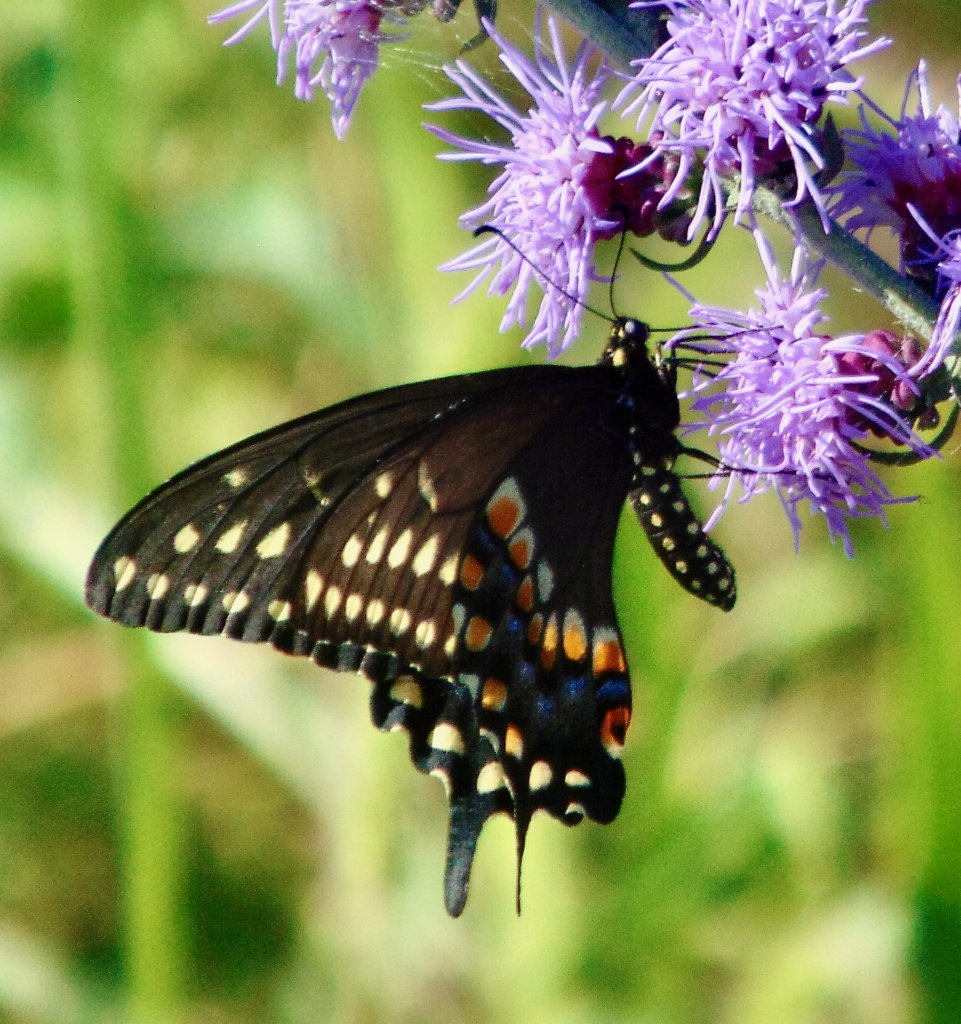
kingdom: Animalia
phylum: Arthropoda
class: Insecta
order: Lepidoptera
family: Papilionidae
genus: Papilio
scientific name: Papilio polyxenes
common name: Black Swallowtail
